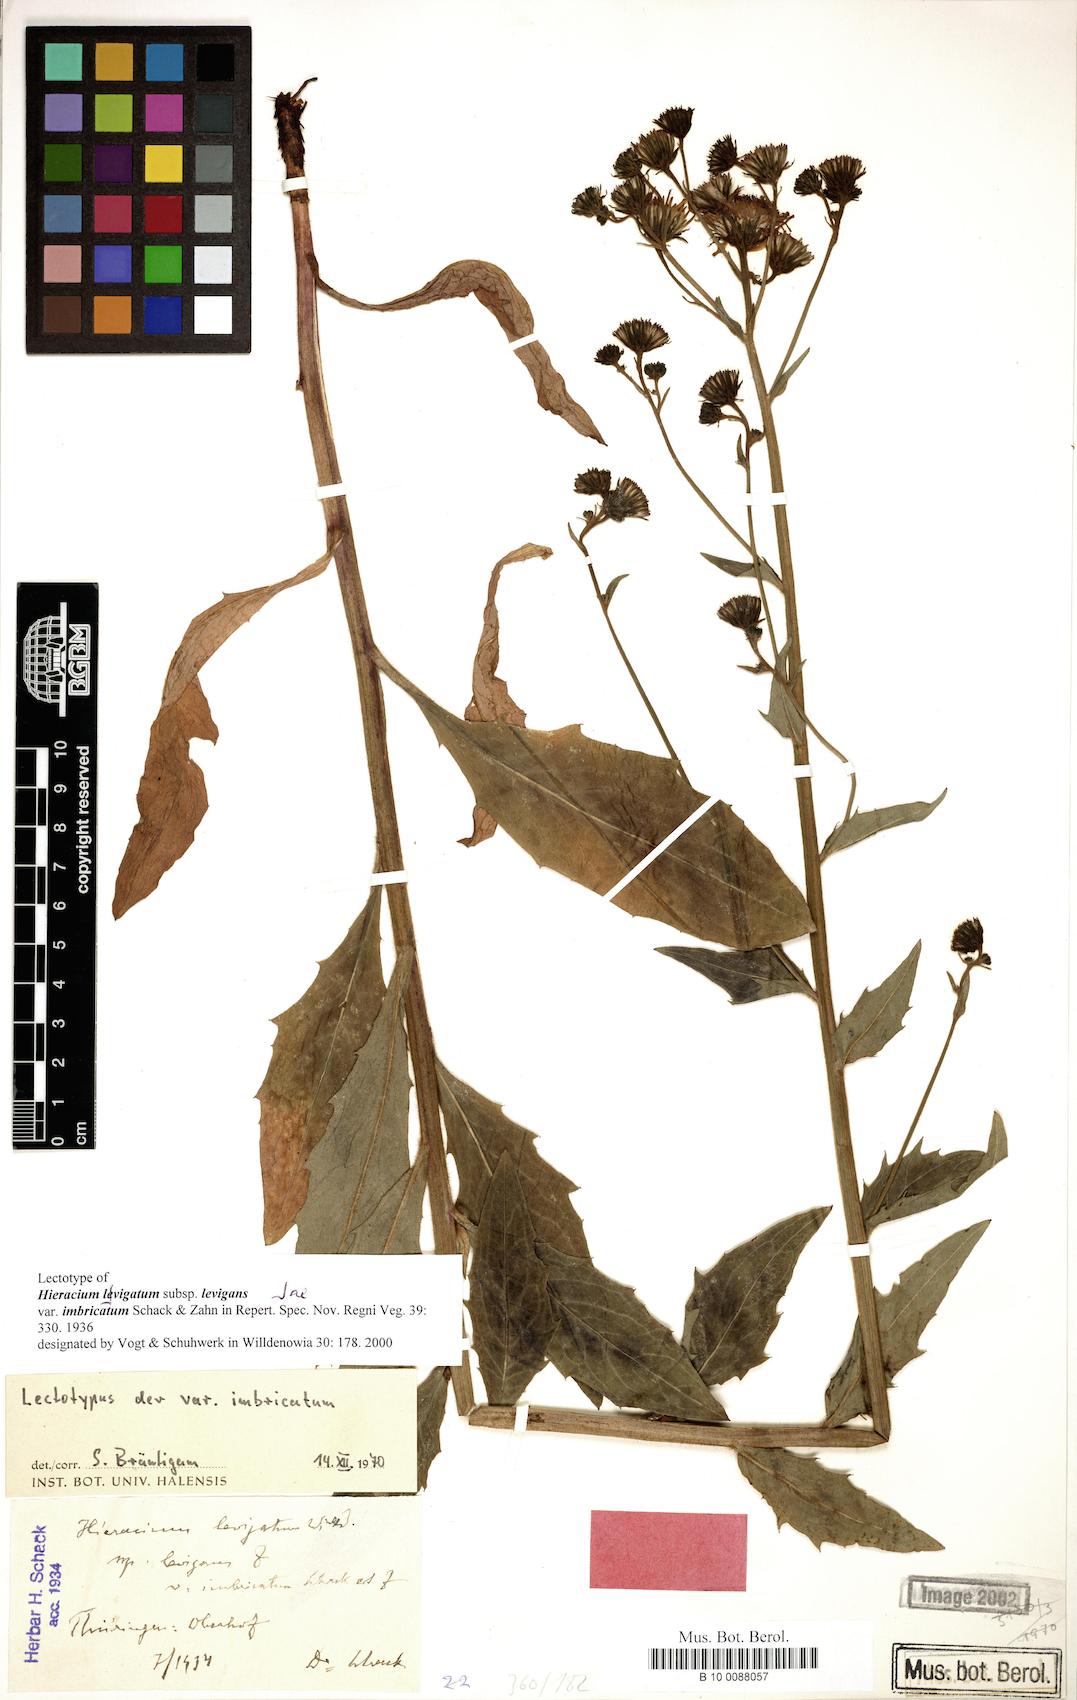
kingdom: Plantae
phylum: Tracheophyta
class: Magnoliopsida
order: Asterales
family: Asteraceae
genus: Hieracium
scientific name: Hieracium laevigatum
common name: Smooth hawkweed
